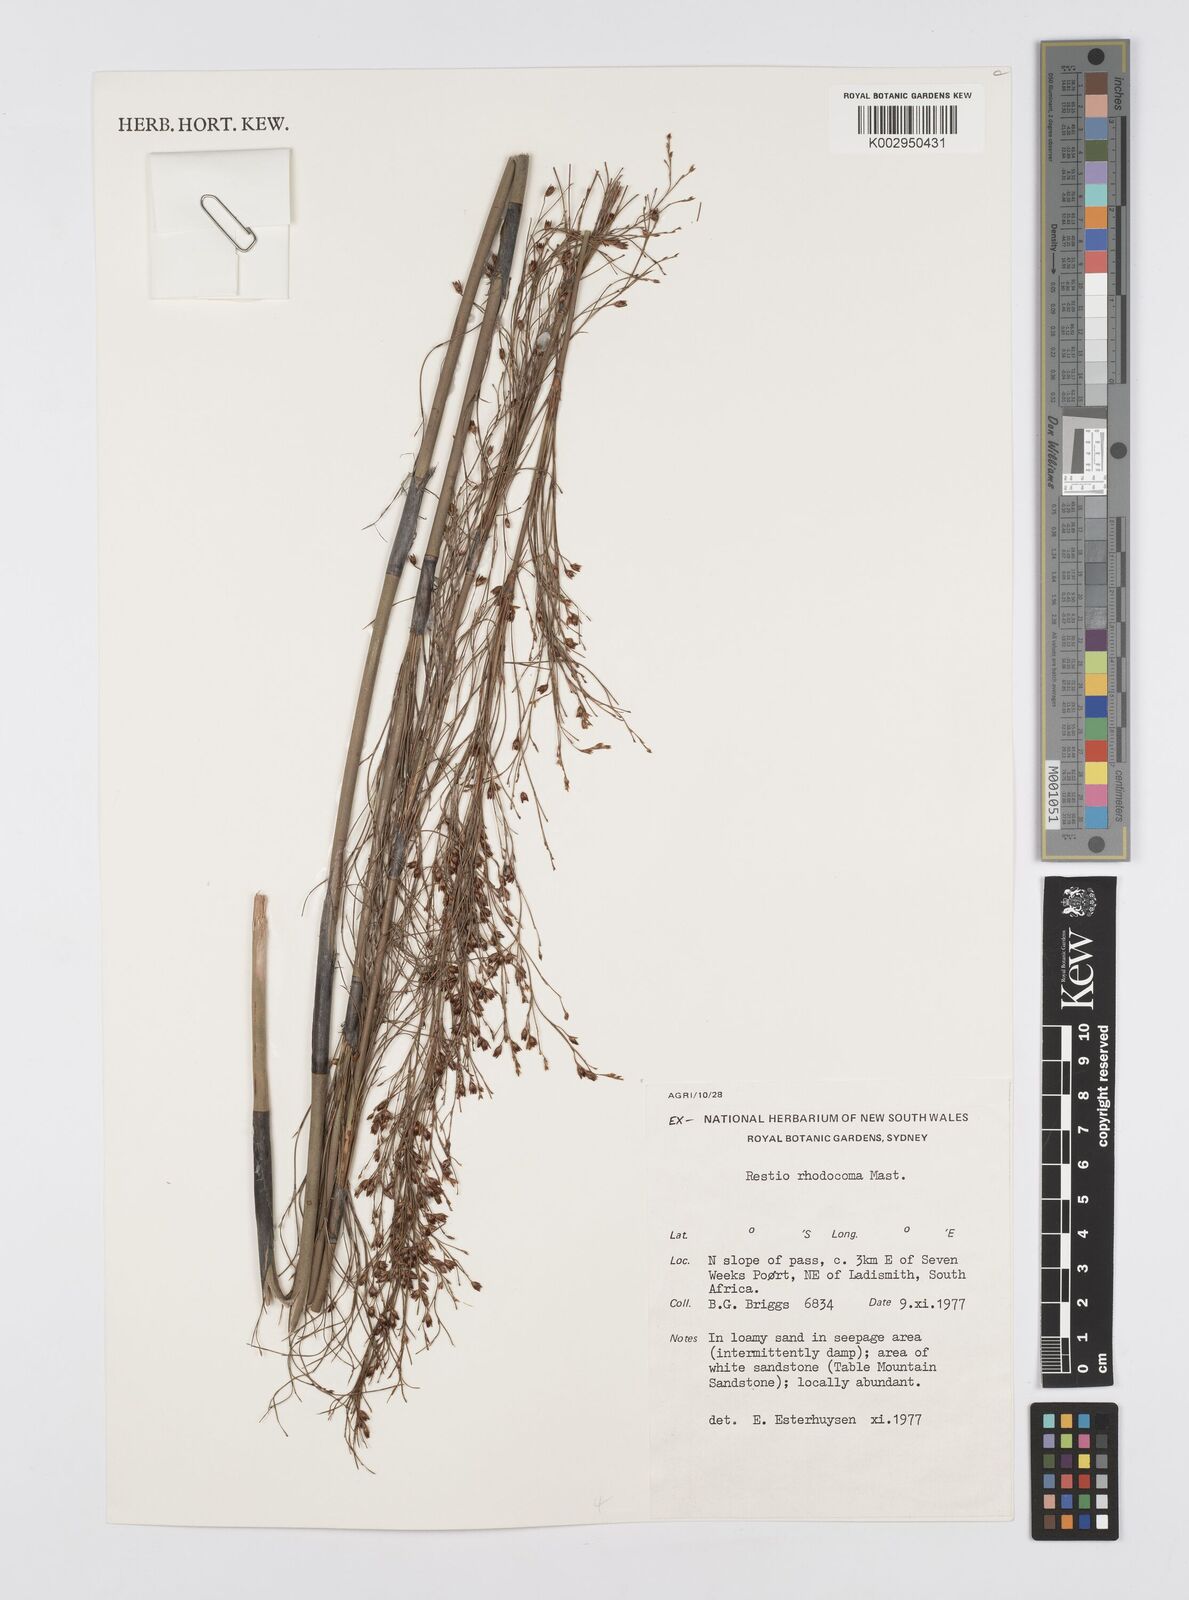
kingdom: Plantae
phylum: Tracheophyta
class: Liliopsida
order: Poales
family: Restionaceae
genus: Rhodocoma
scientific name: Rhodocoma capensis
